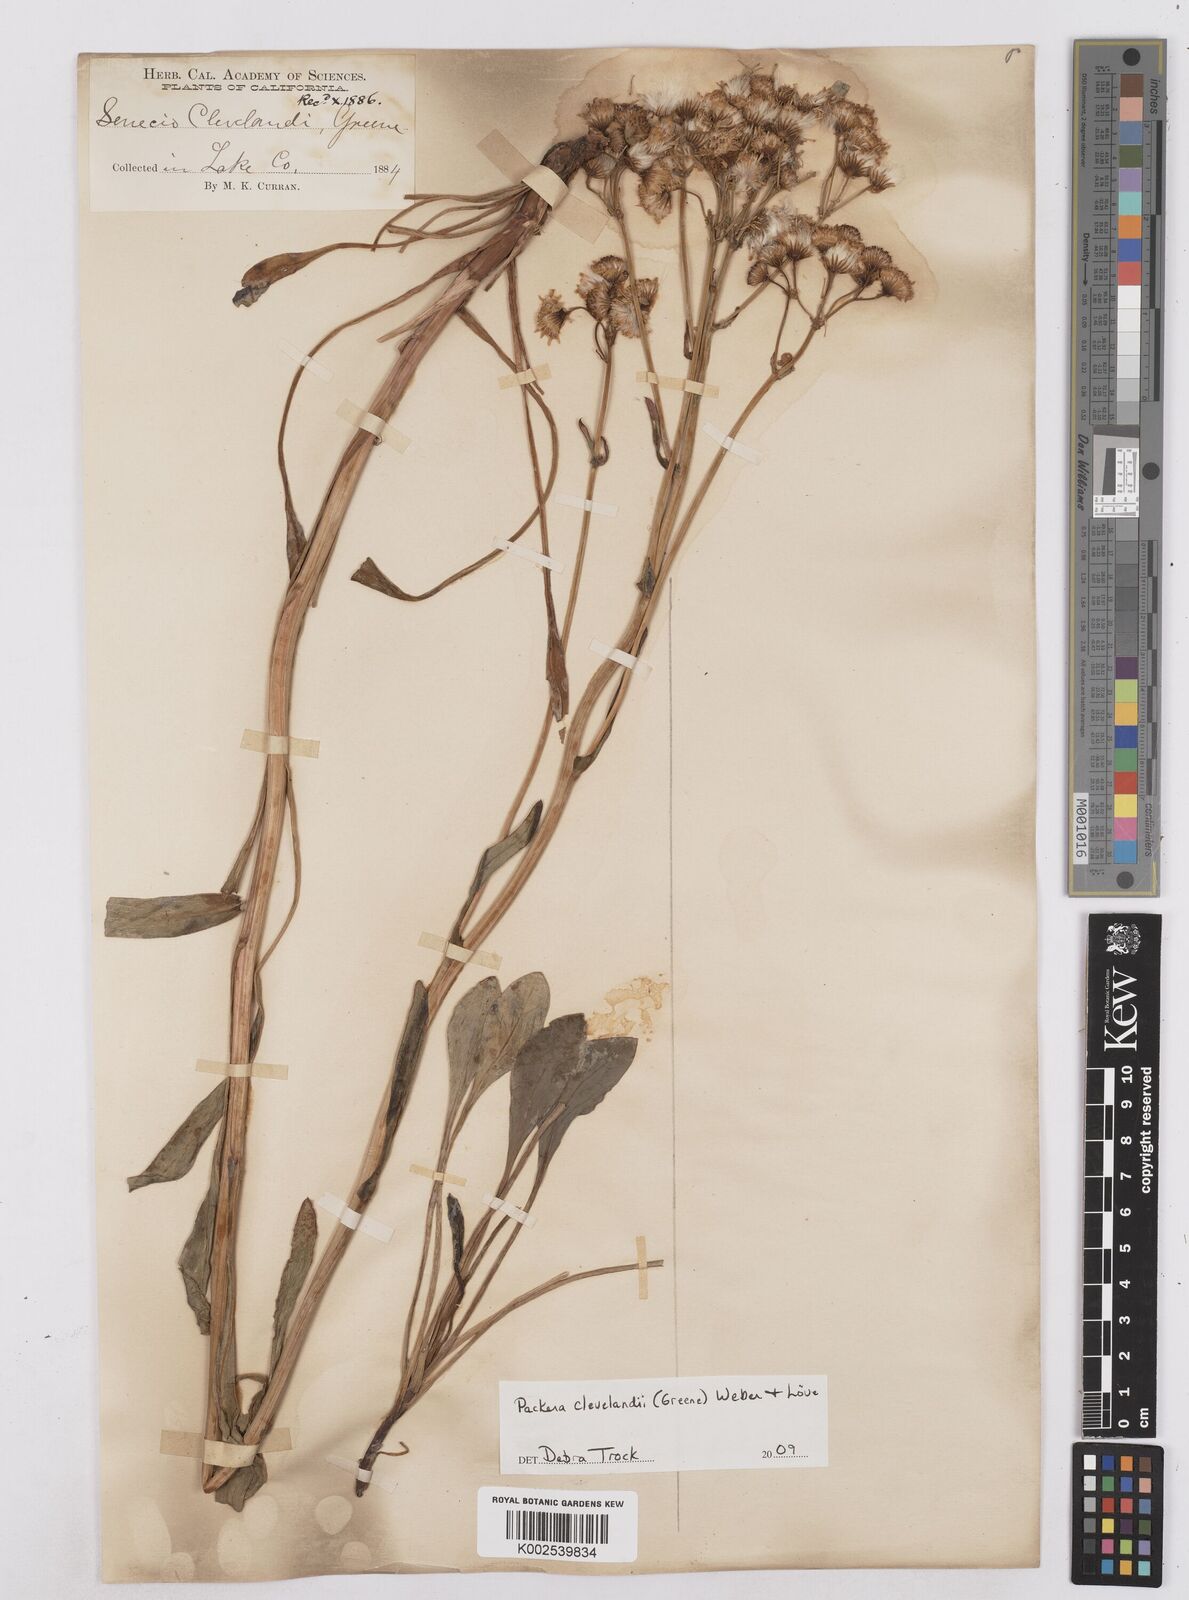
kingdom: Plantae
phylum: Tracheophyta
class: Magnoliopsida
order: Asterales
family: Asteraceae
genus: Packera
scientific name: Packera clevelandii
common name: Serpentine butterweed
